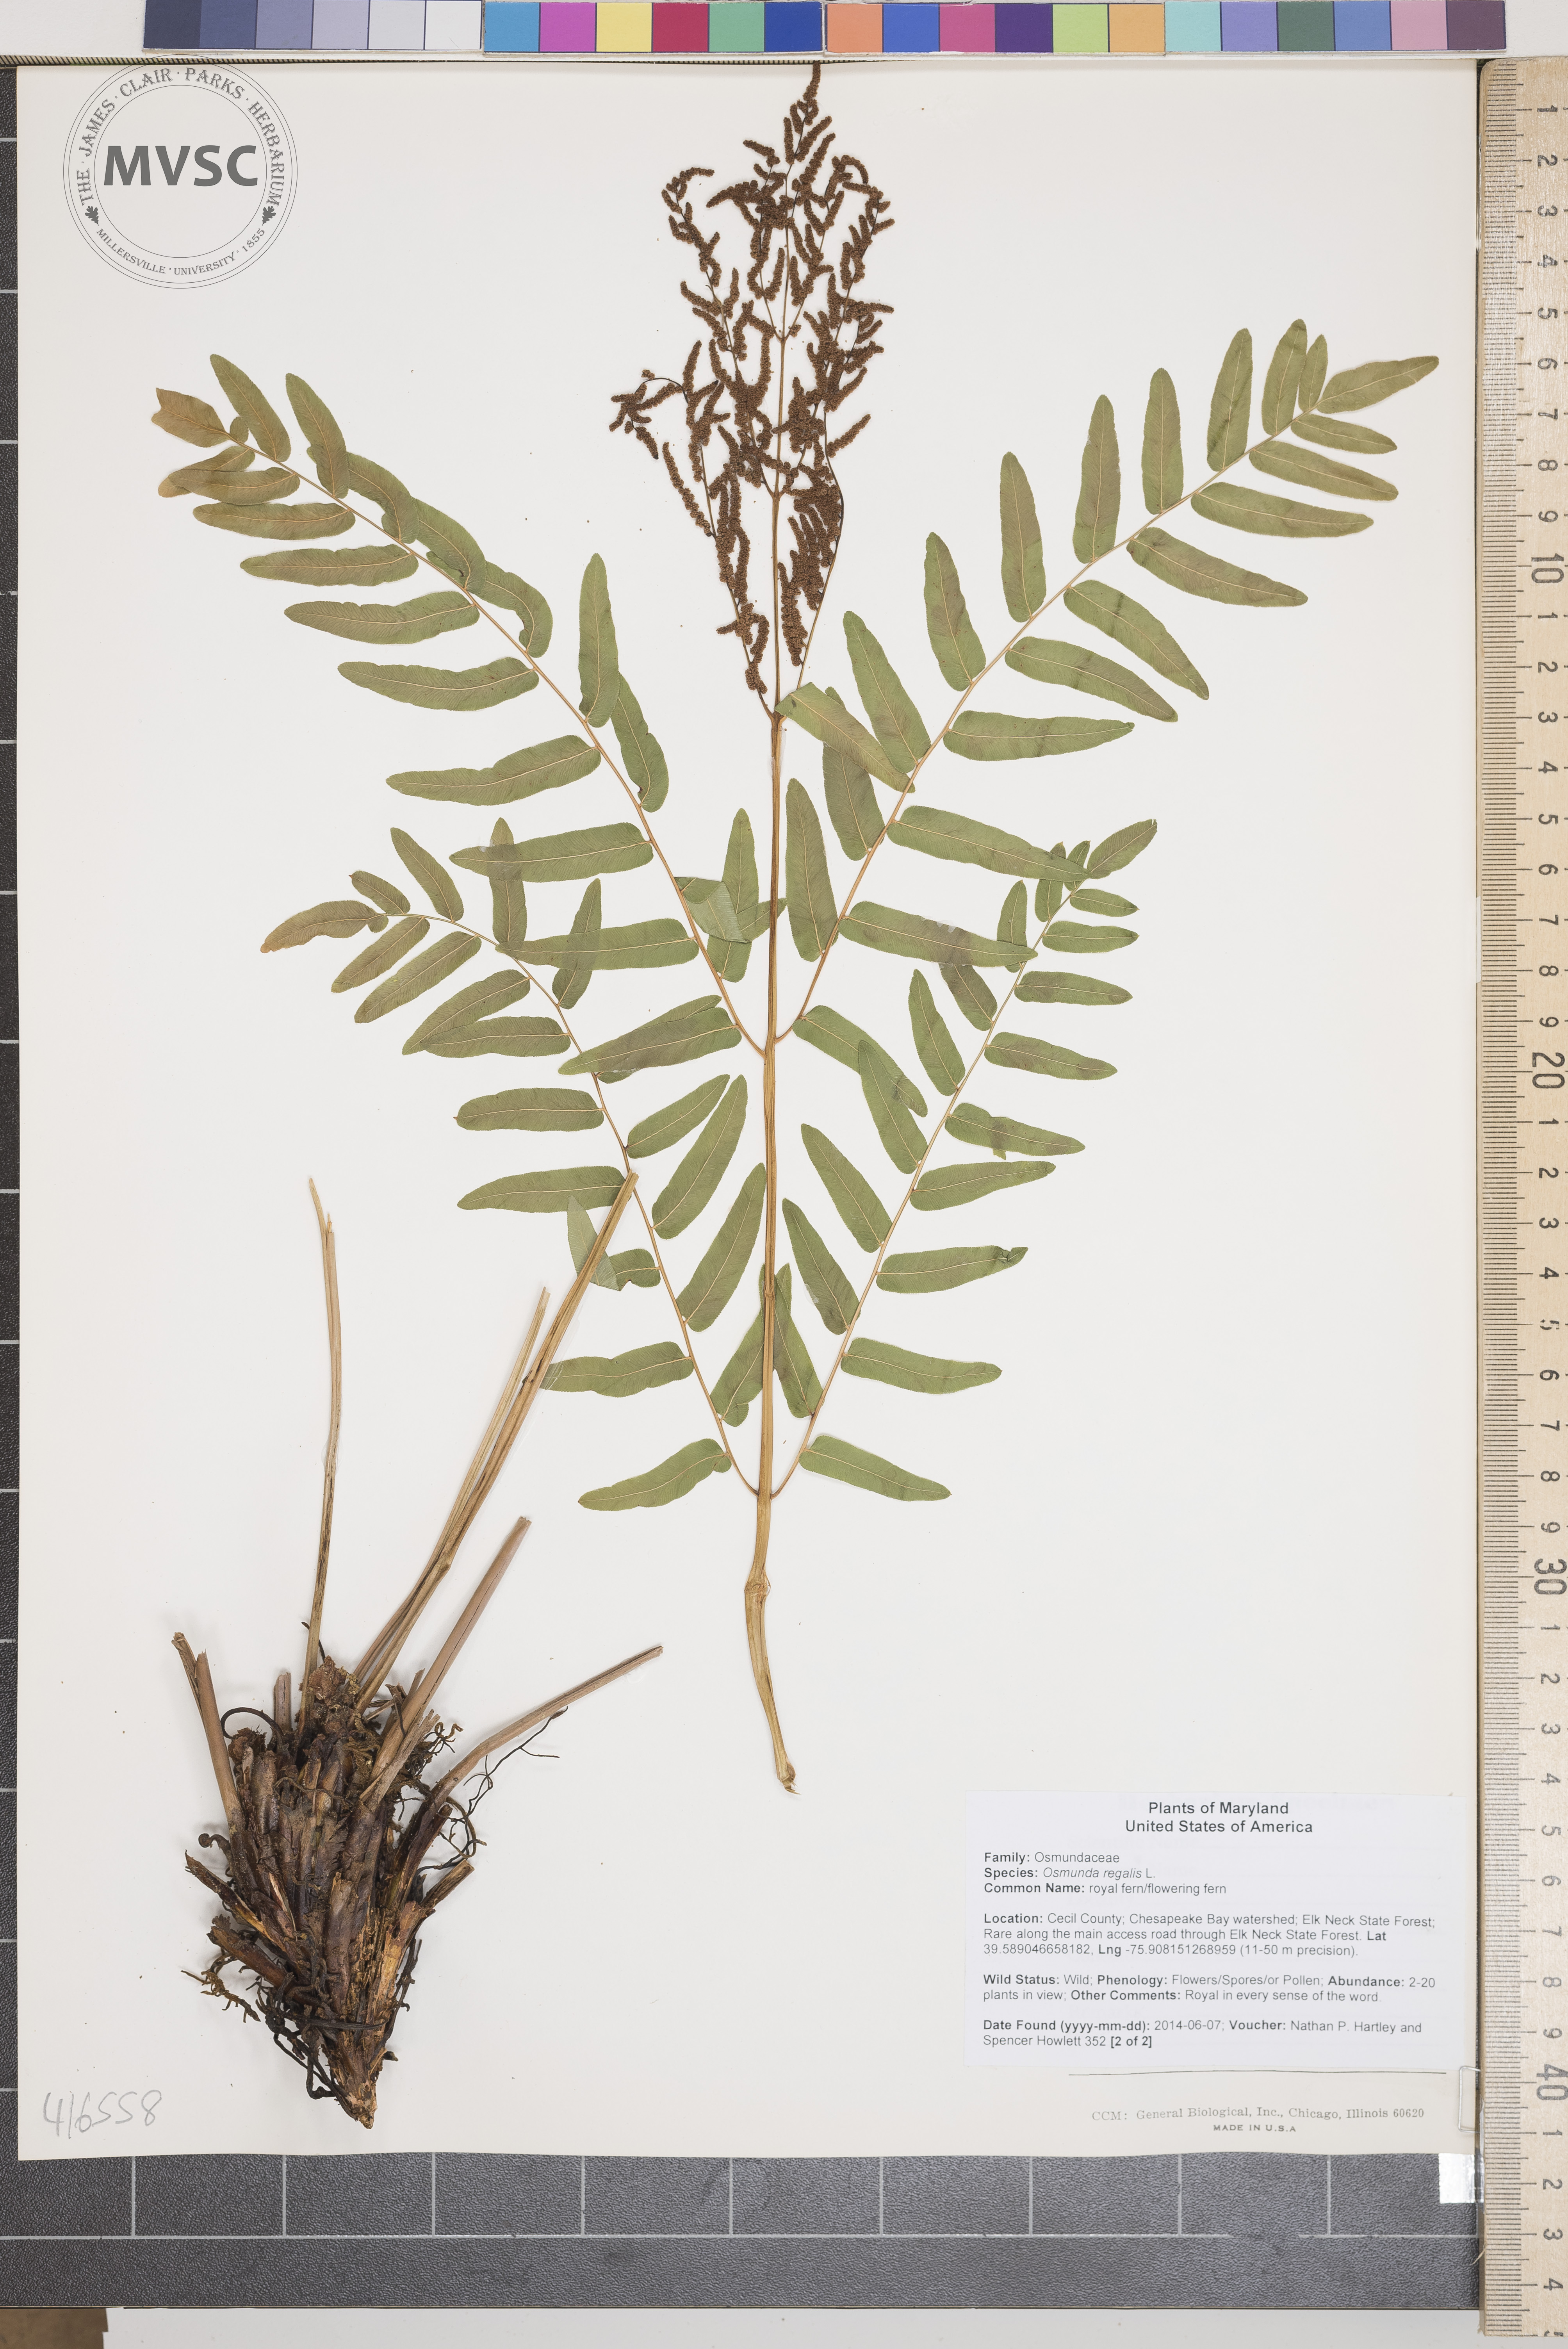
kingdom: Plantae
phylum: Tracheophyta
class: Polypodiopsida
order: Osmundales
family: Osmundaceae
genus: Osmunda
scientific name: Osmunda regalis
